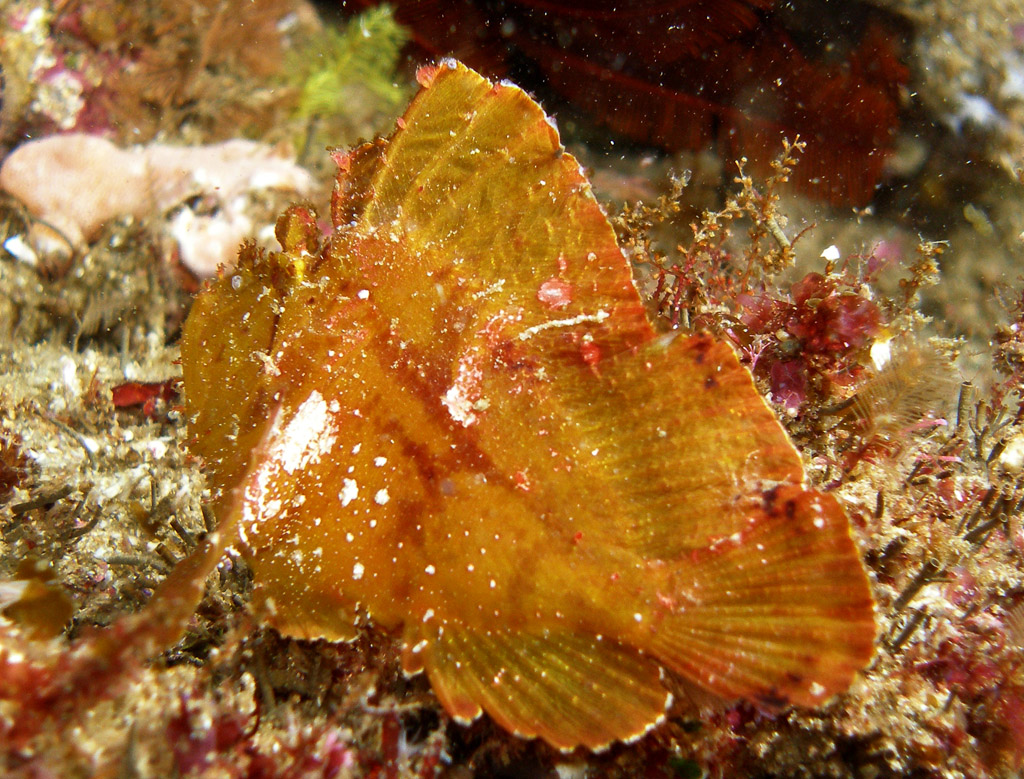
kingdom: Animalia
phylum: Chordata
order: Scorpaeniformes
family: Scorpaenidae
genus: Taenianotus
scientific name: Taenianotus triacanthus
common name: Leaf scorpionfish
